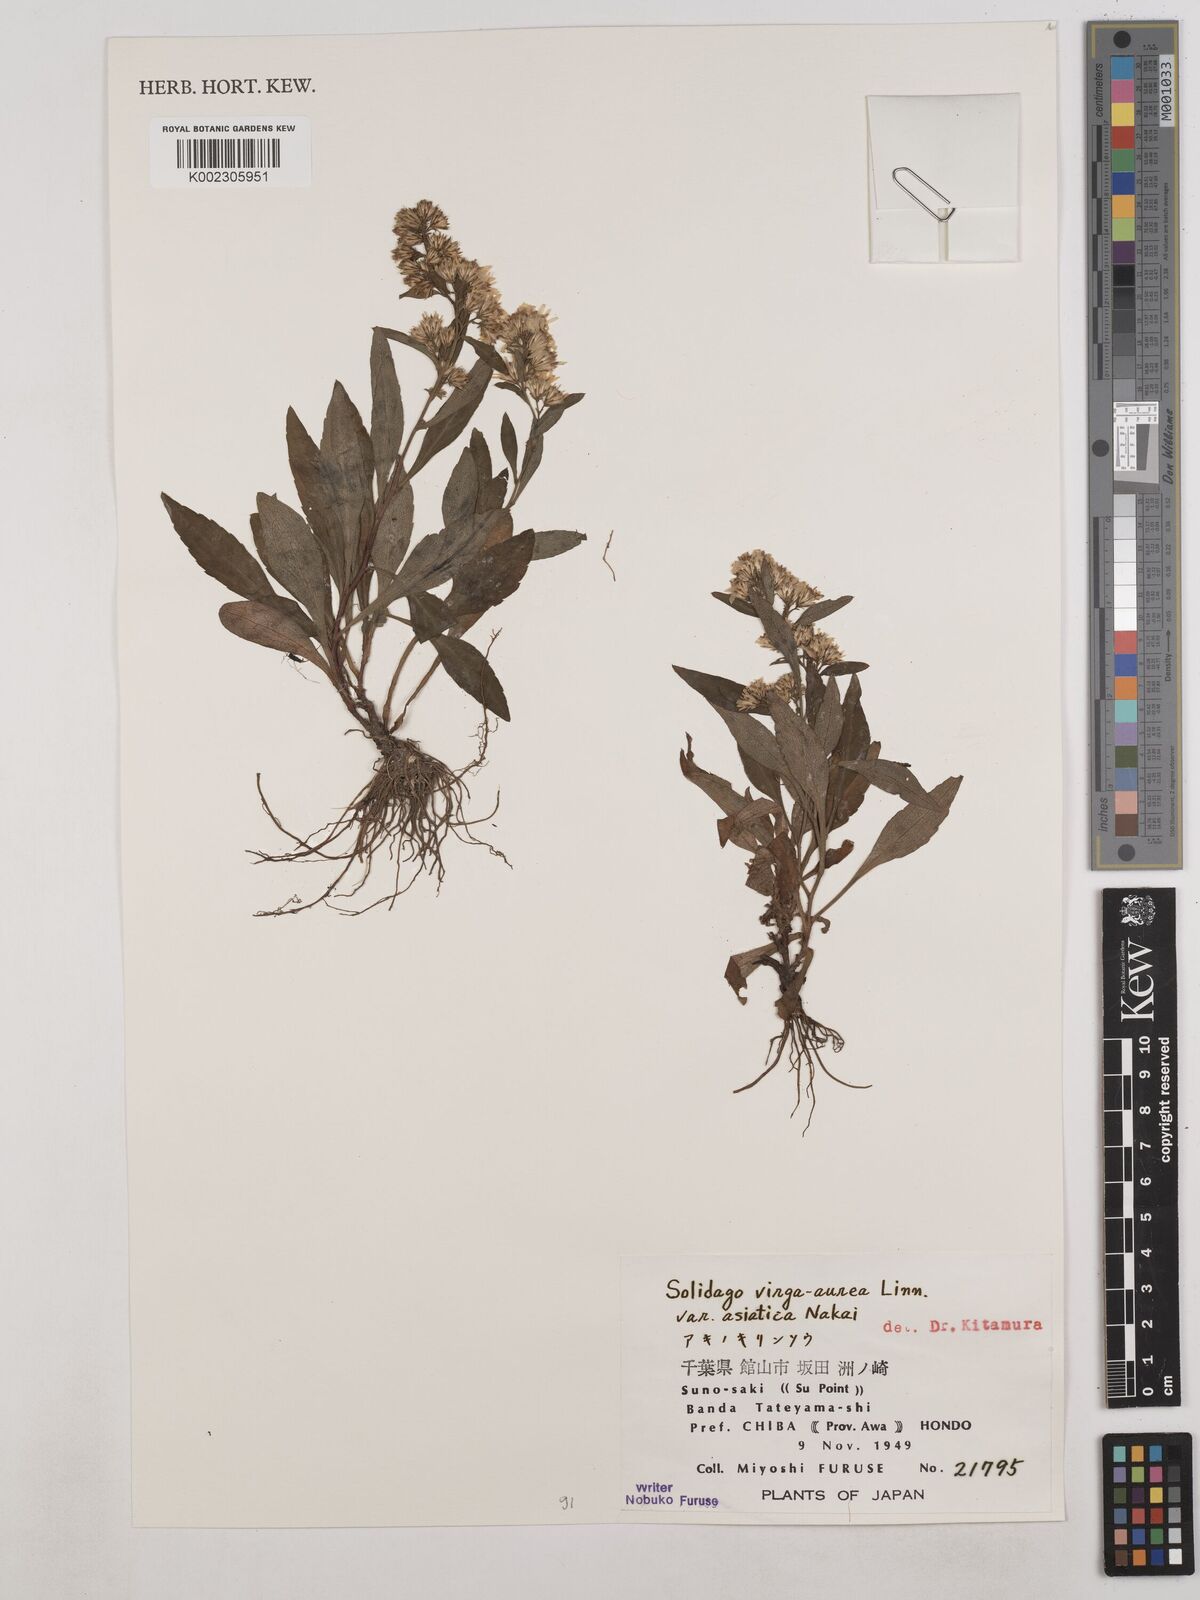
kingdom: Plantae
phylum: Tracheophyta
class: Magnoliopsida
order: Asterales
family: Asteraceae
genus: Solidago
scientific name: Solidago virgaurea
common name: Goldenrod
